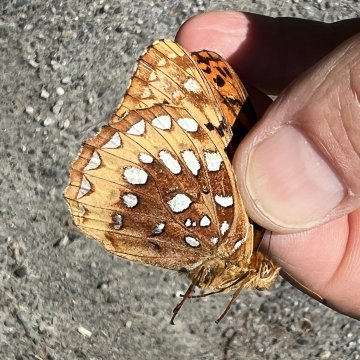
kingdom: Animalia
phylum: Arthropoda
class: Insecta
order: Lepidoptera
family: Nymphalidae
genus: Speyeria
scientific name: Speyeria cybele
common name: Great Spangled Fritillary
